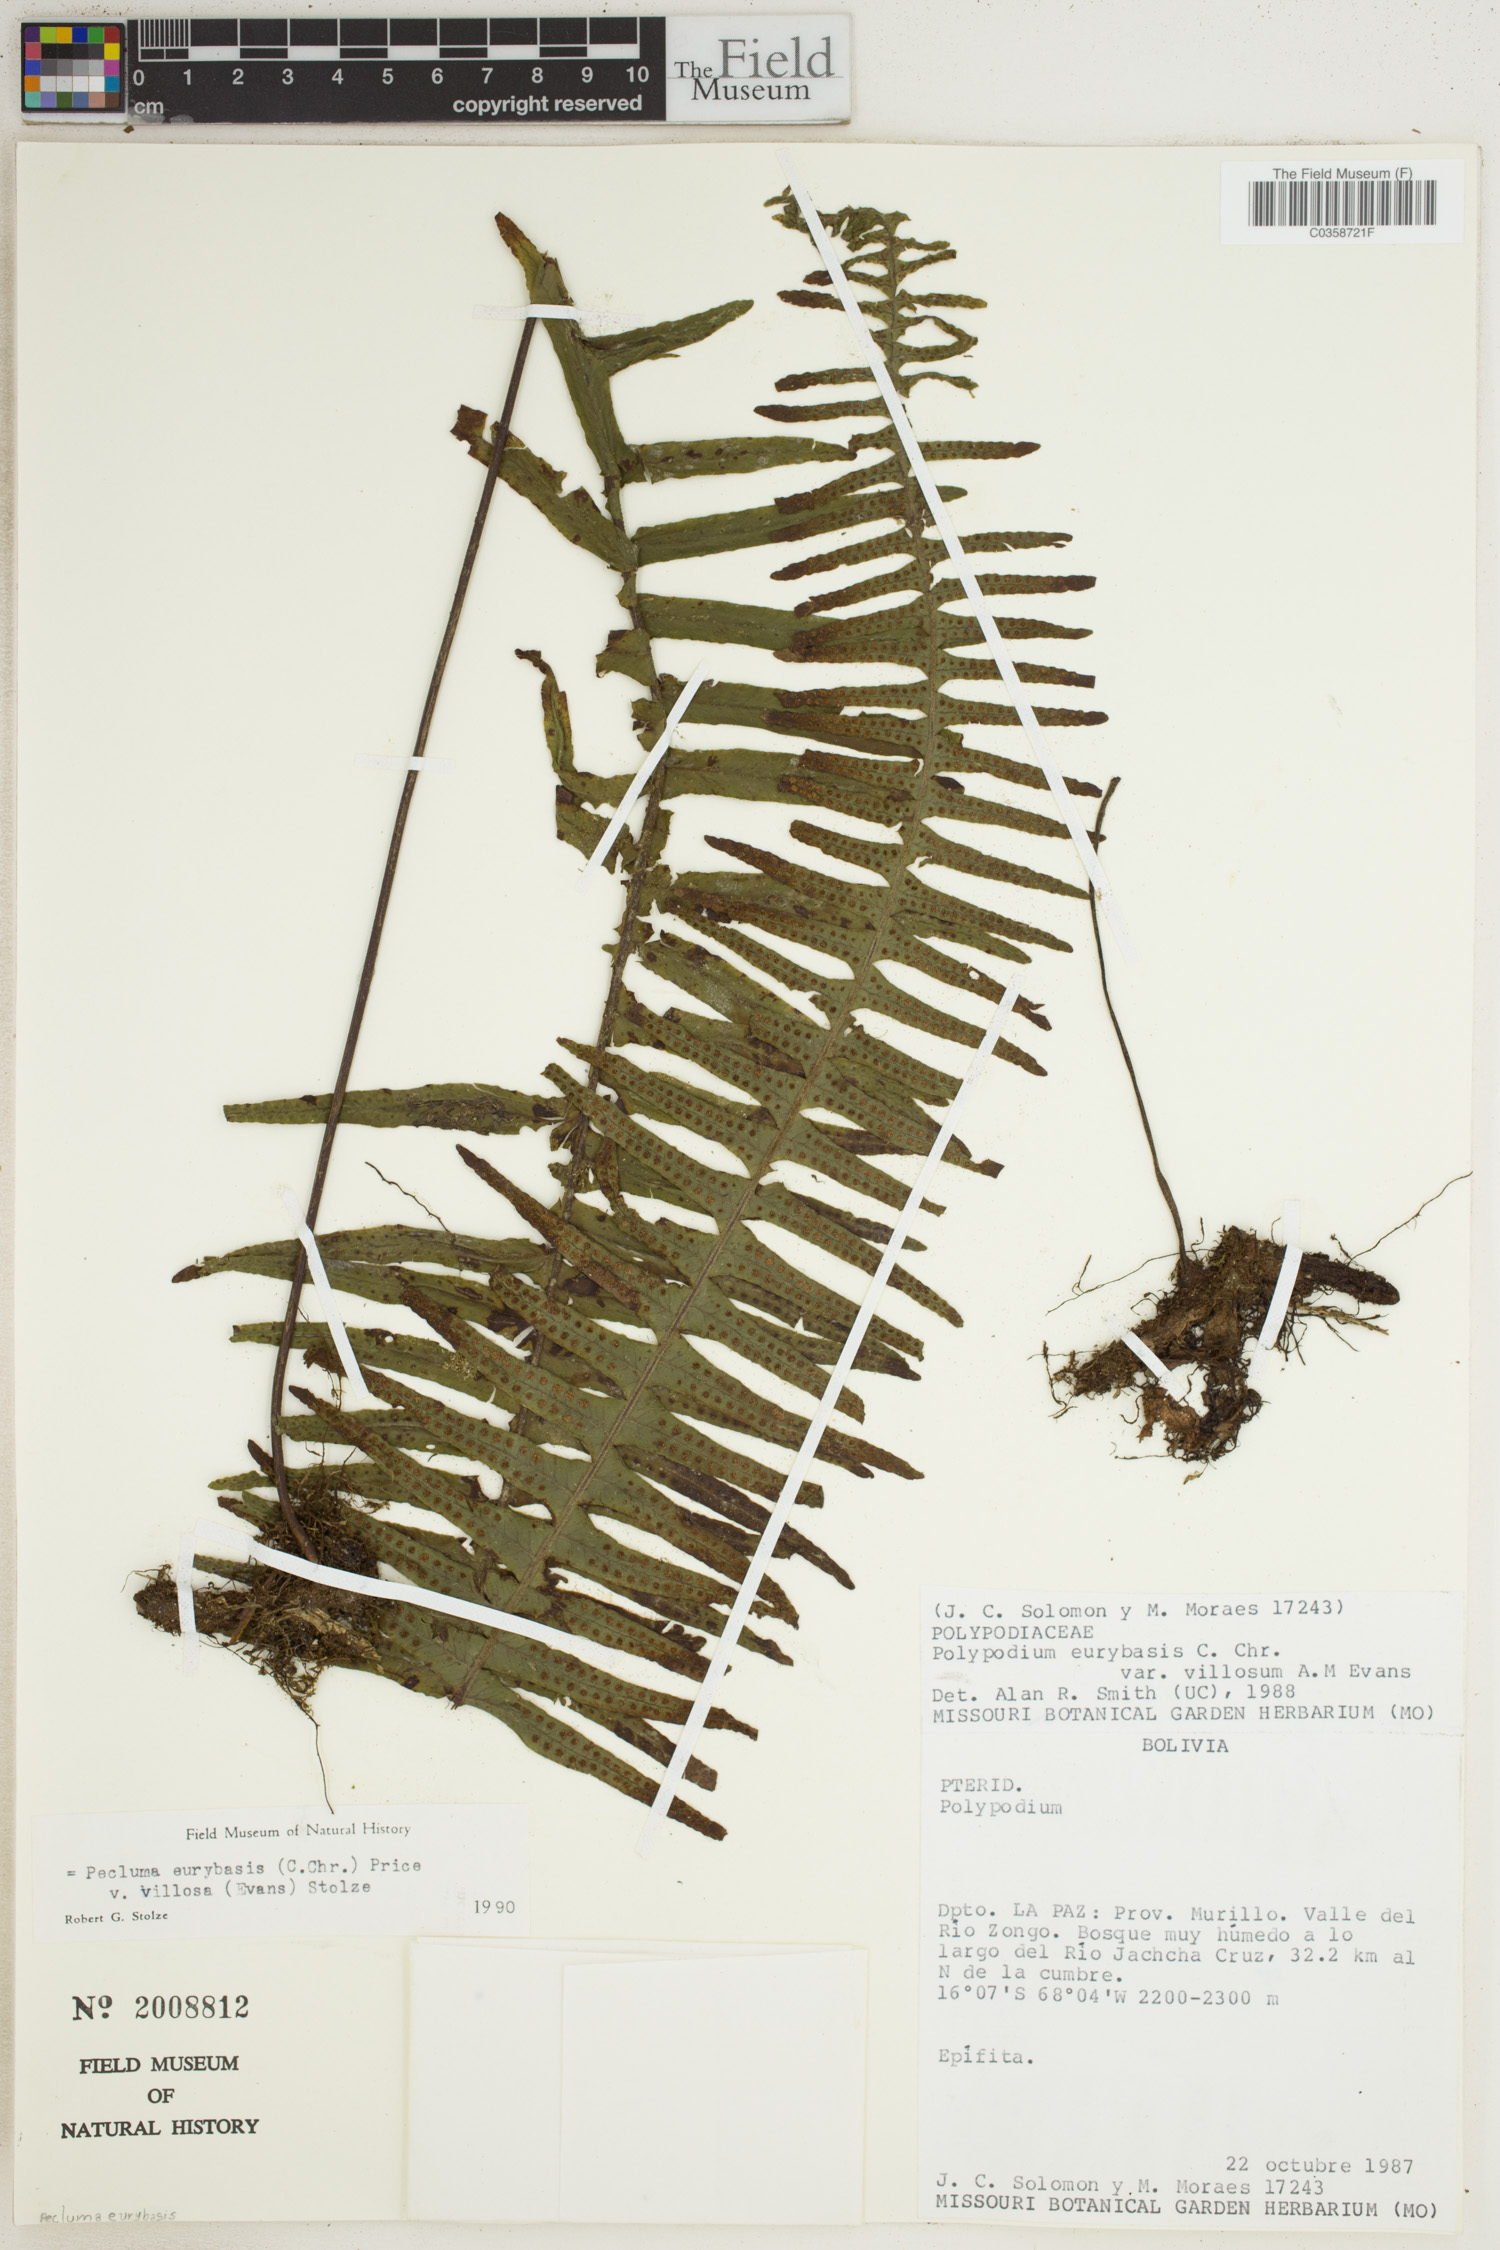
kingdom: Plantae
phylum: Tracheophyta
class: Polypodiopsida
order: Polypodiales
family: Polypodiaceae
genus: Pecluma
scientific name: Pecluma eurybasis
